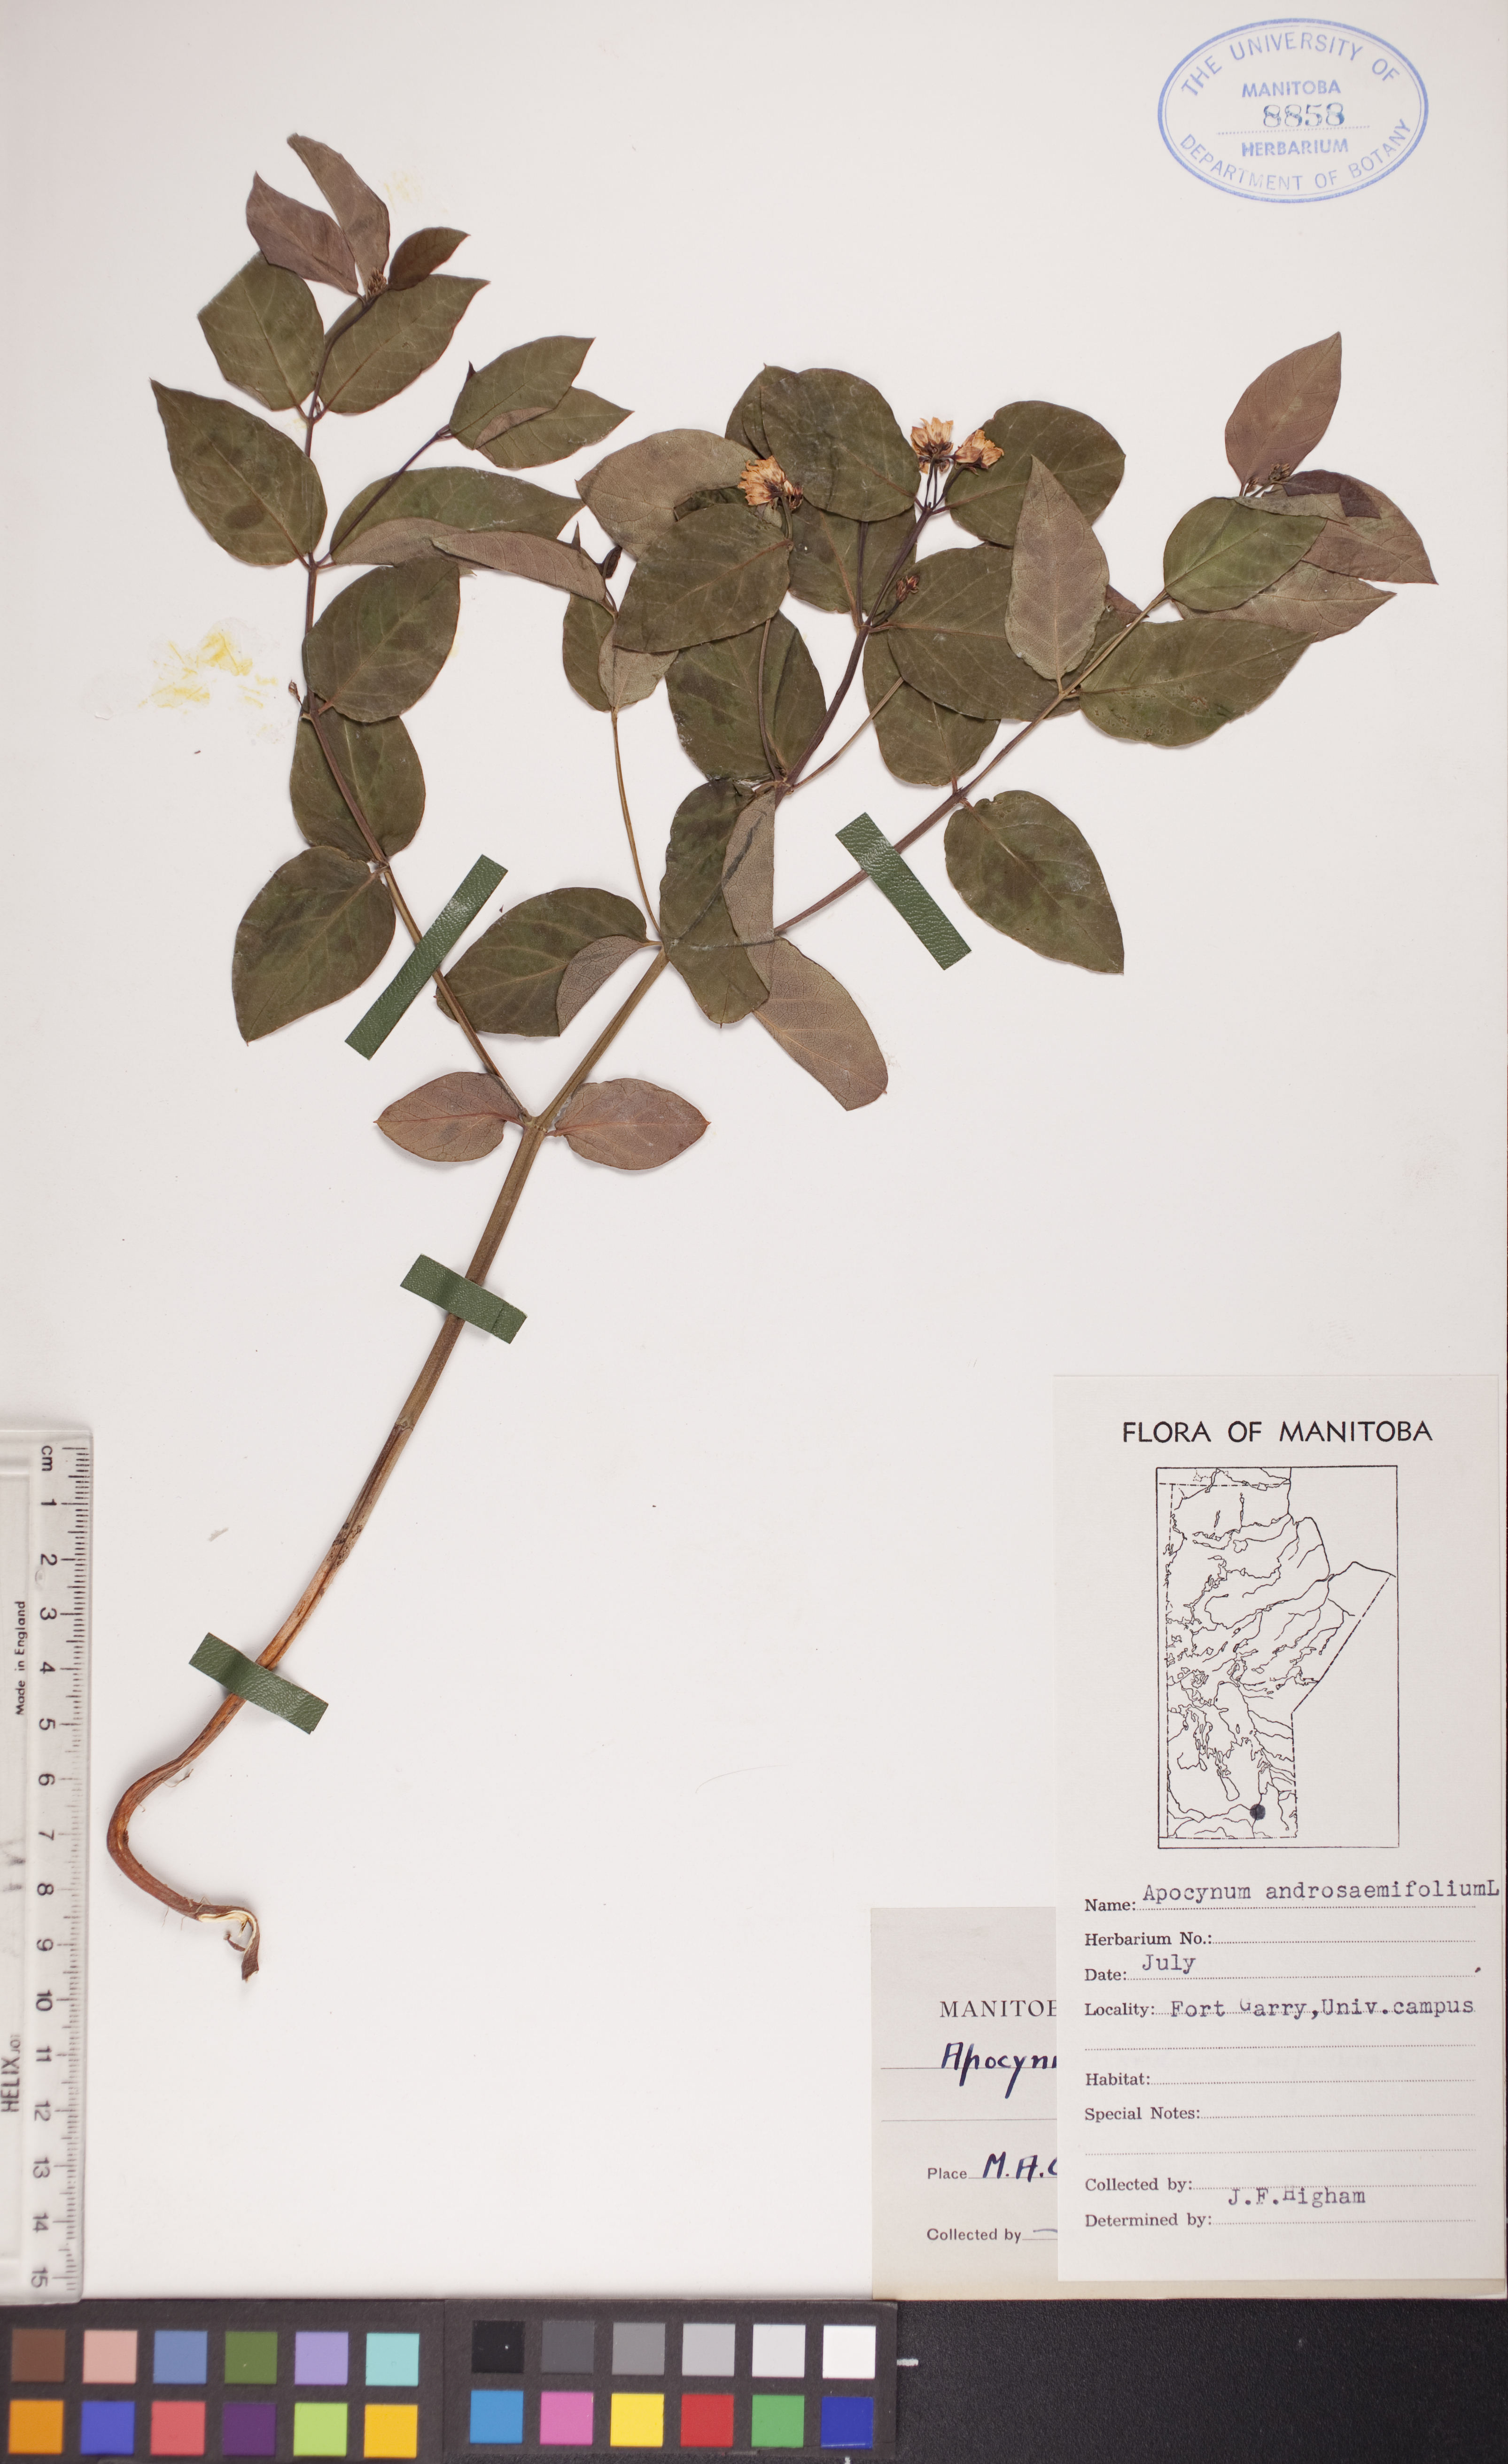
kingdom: Plantae
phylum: Tracheophyta
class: Magnoliopsida
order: Gentianales
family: Apocynaceae
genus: Apocynum
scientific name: Apocynum androsaemifolium
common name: Spreading dogbane
